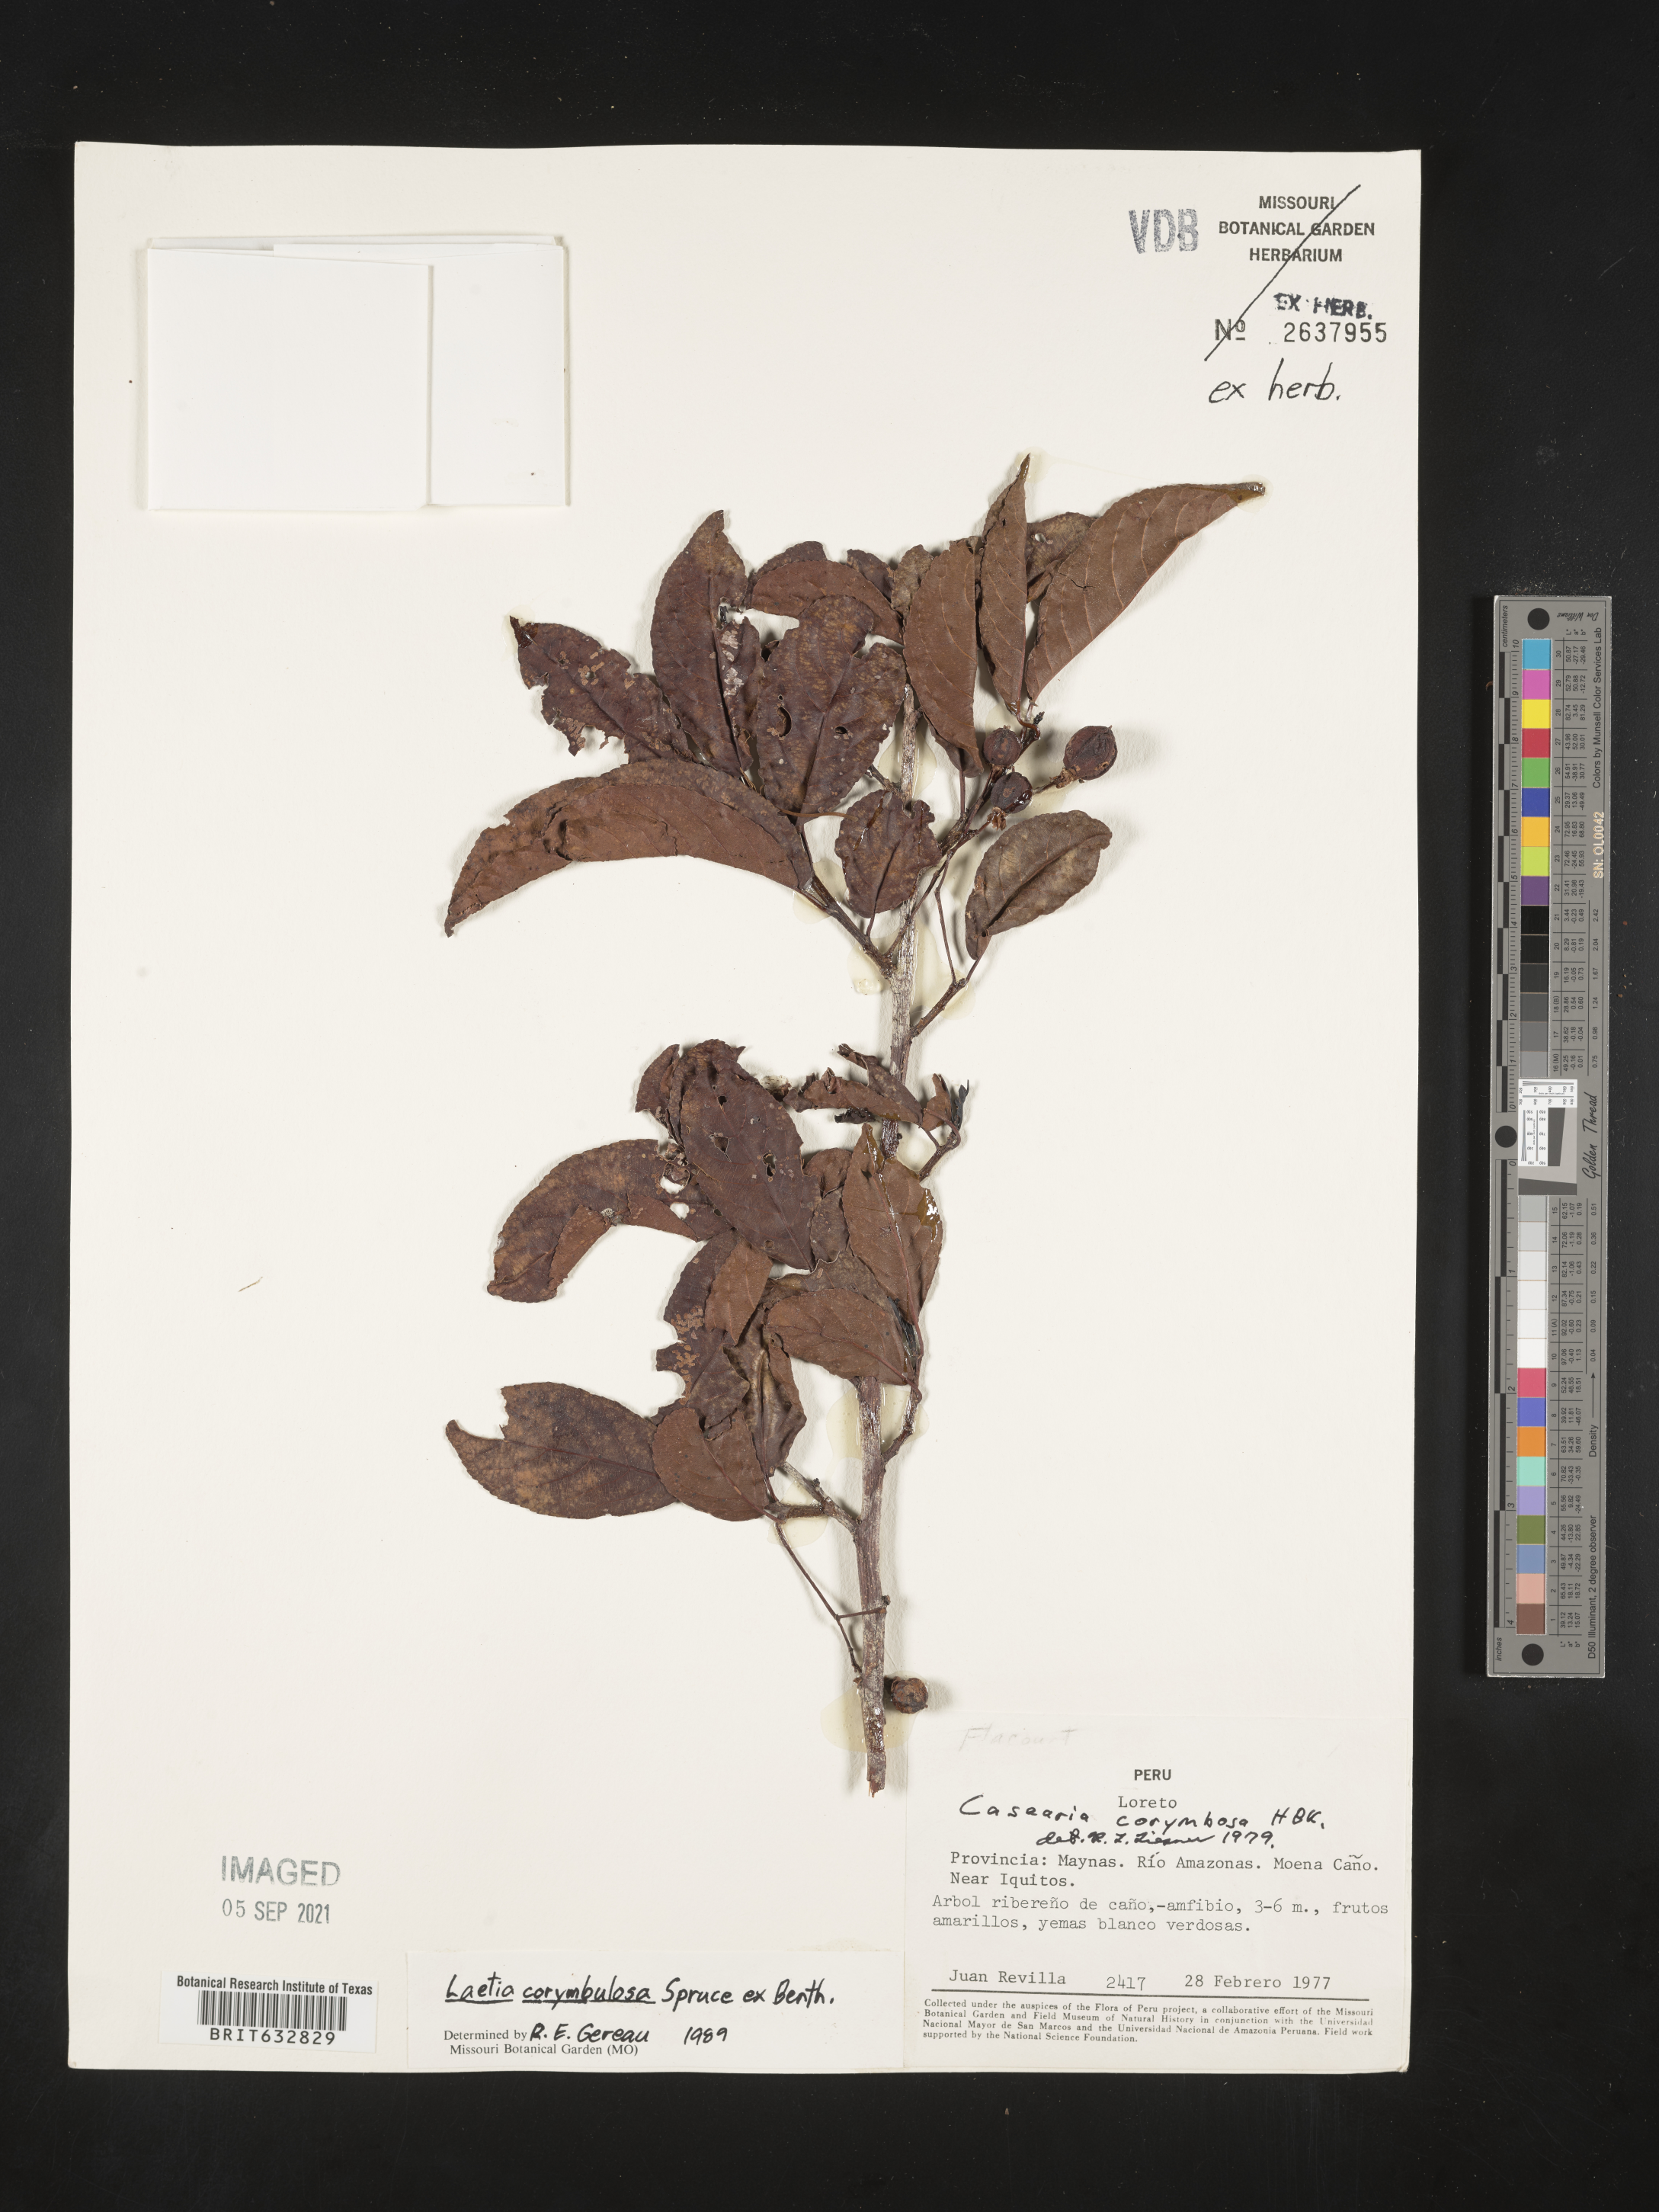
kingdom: Plantae
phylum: Tracheophyta
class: Magnoliopsida
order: Malpighiales
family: Flacourtiaceae
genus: Laetia
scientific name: Laetia
